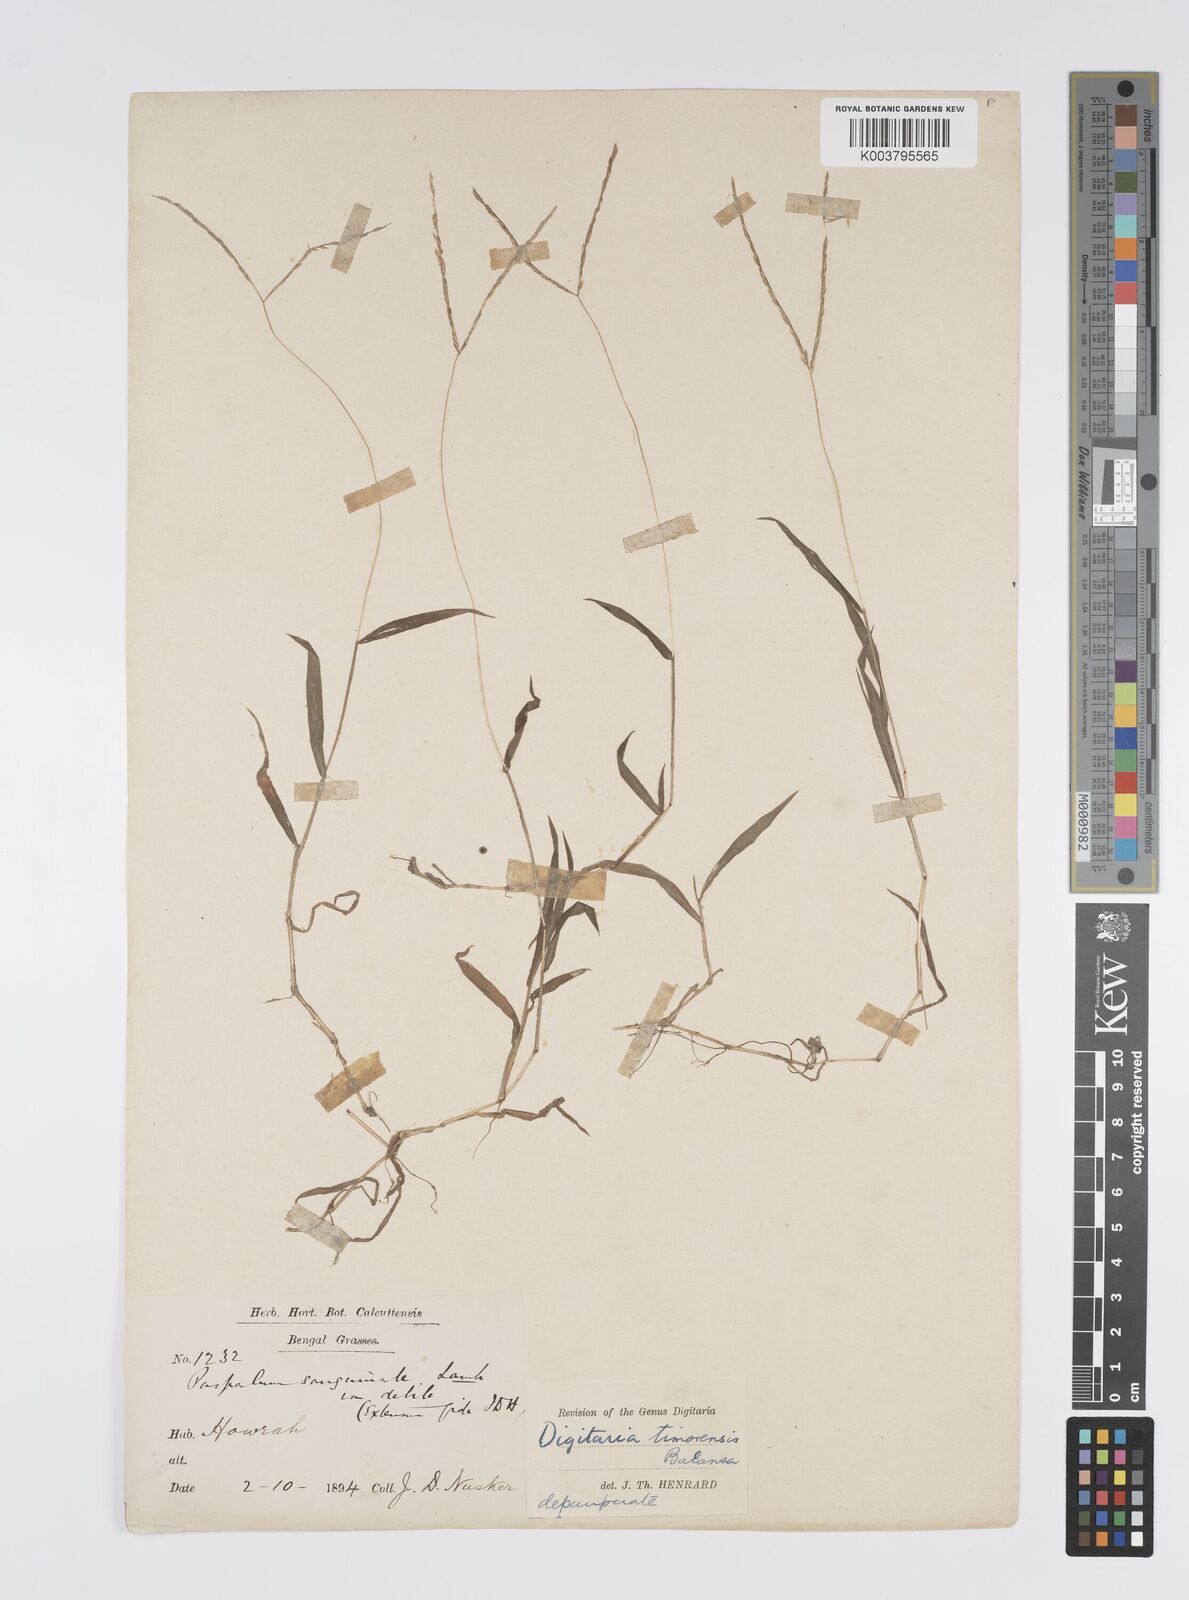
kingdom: Plantae
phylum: Tracheophyta
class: Liliopsida
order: Poales
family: Poaceae
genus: Digitaria
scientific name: Digitaria radicosa
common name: Trailing crabgrass
